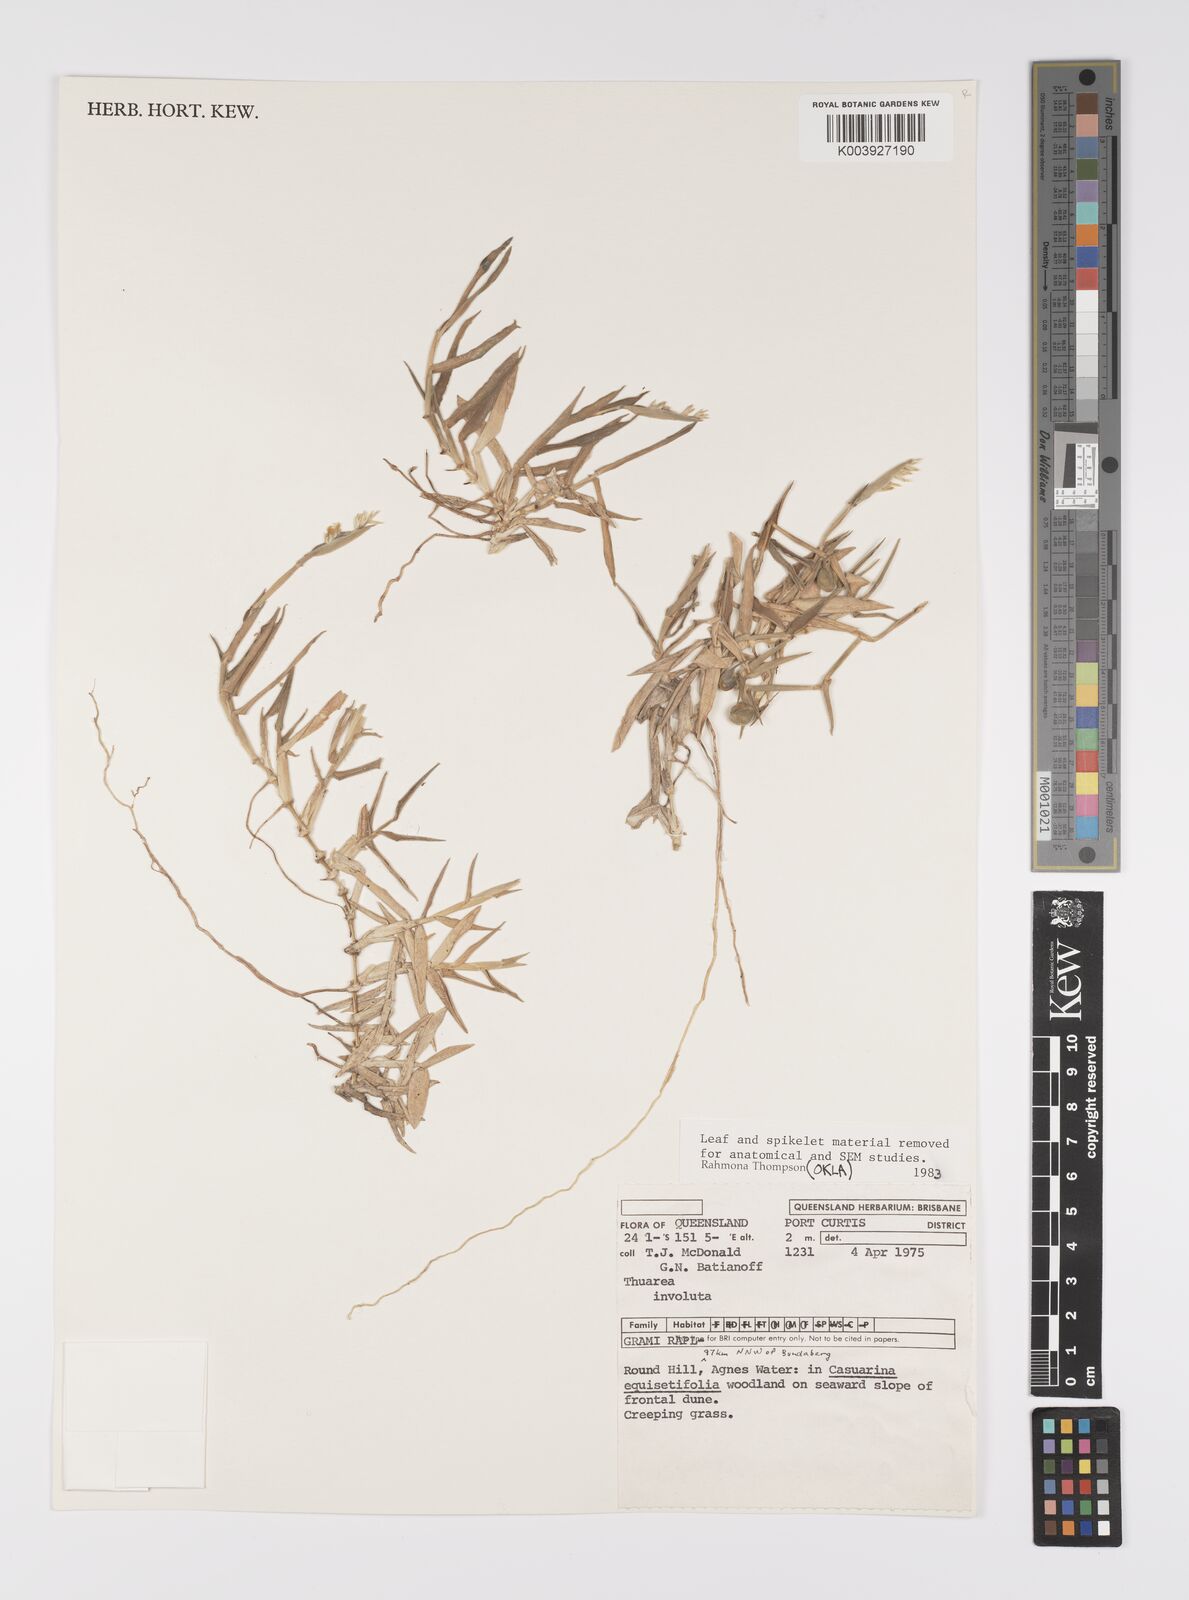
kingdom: Plantae
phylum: Tracheophyta
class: Liliopsida
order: Poales
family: Poaceae
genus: Thuarea
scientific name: Thuarea involuta
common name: Tropical beach grass
